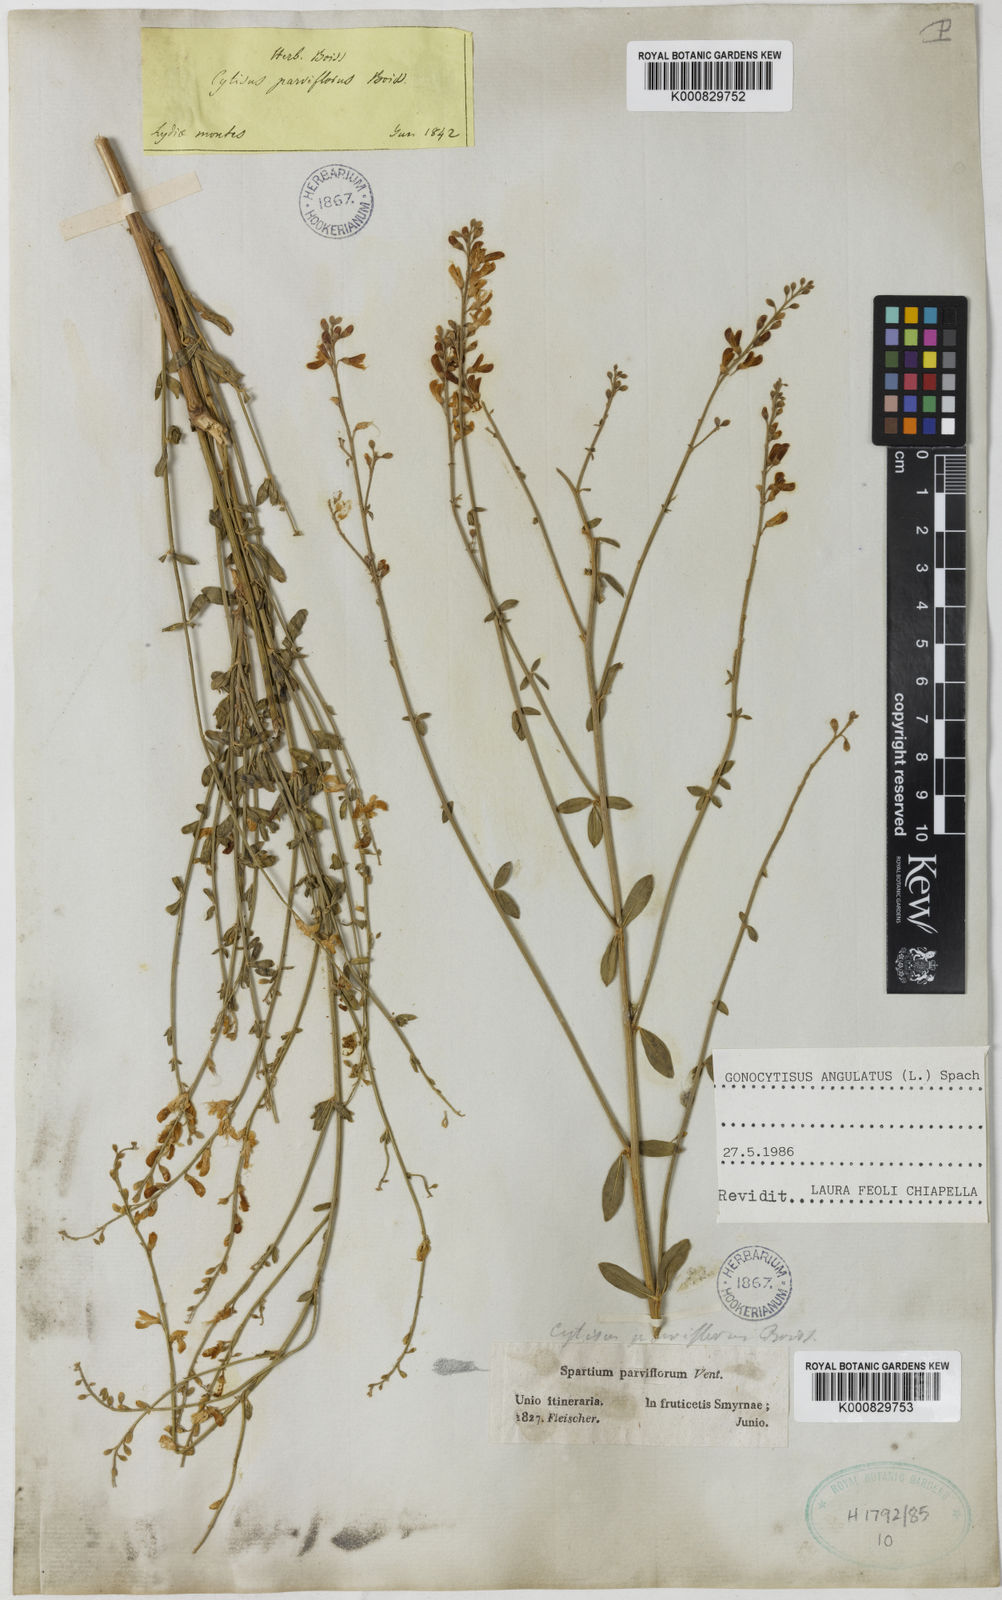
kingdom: Plantae
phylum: Tracheophyta
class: Magnoliopsida
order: Fabales
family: Fabaceae
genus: Gonocytisus
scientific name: Gonocytisus angulatus
